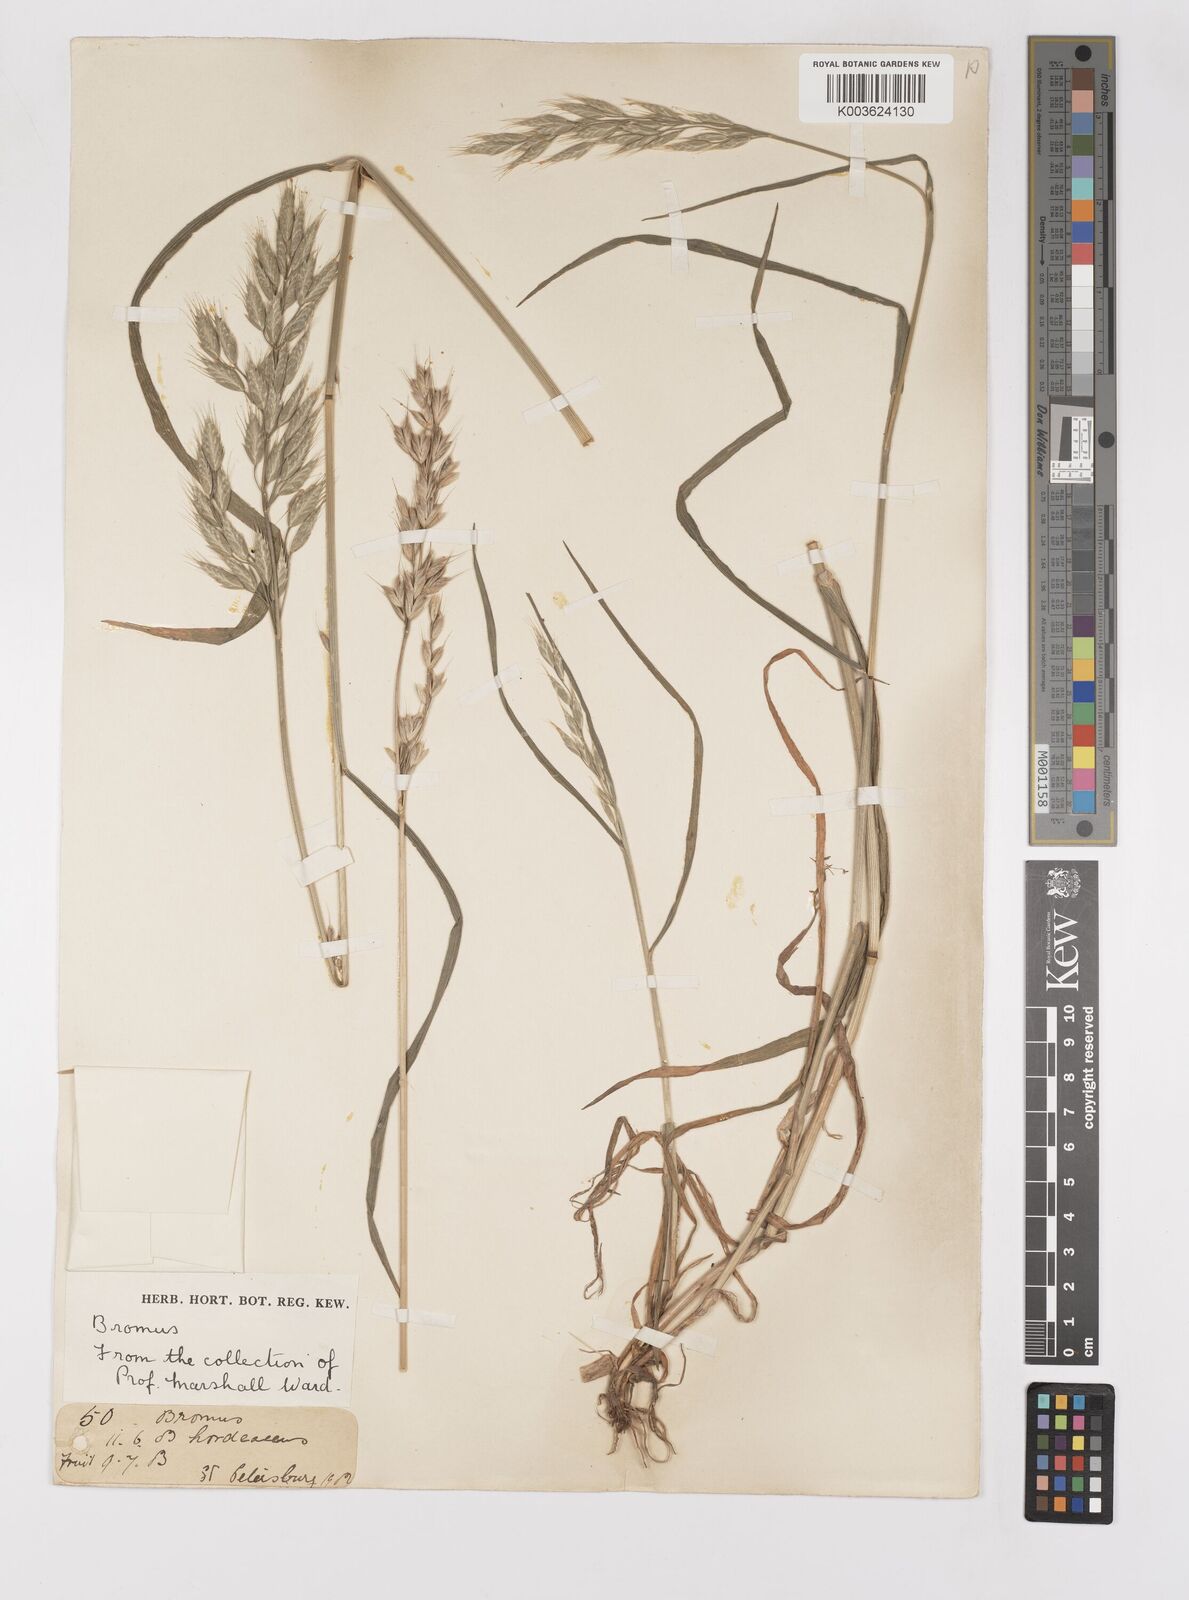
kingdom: Plantae
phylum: Tracheophyta
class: Liliopsida
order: Poales
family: Poaceae
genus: Bromus
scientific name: Bromus hordeaceus
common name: Soft brome
